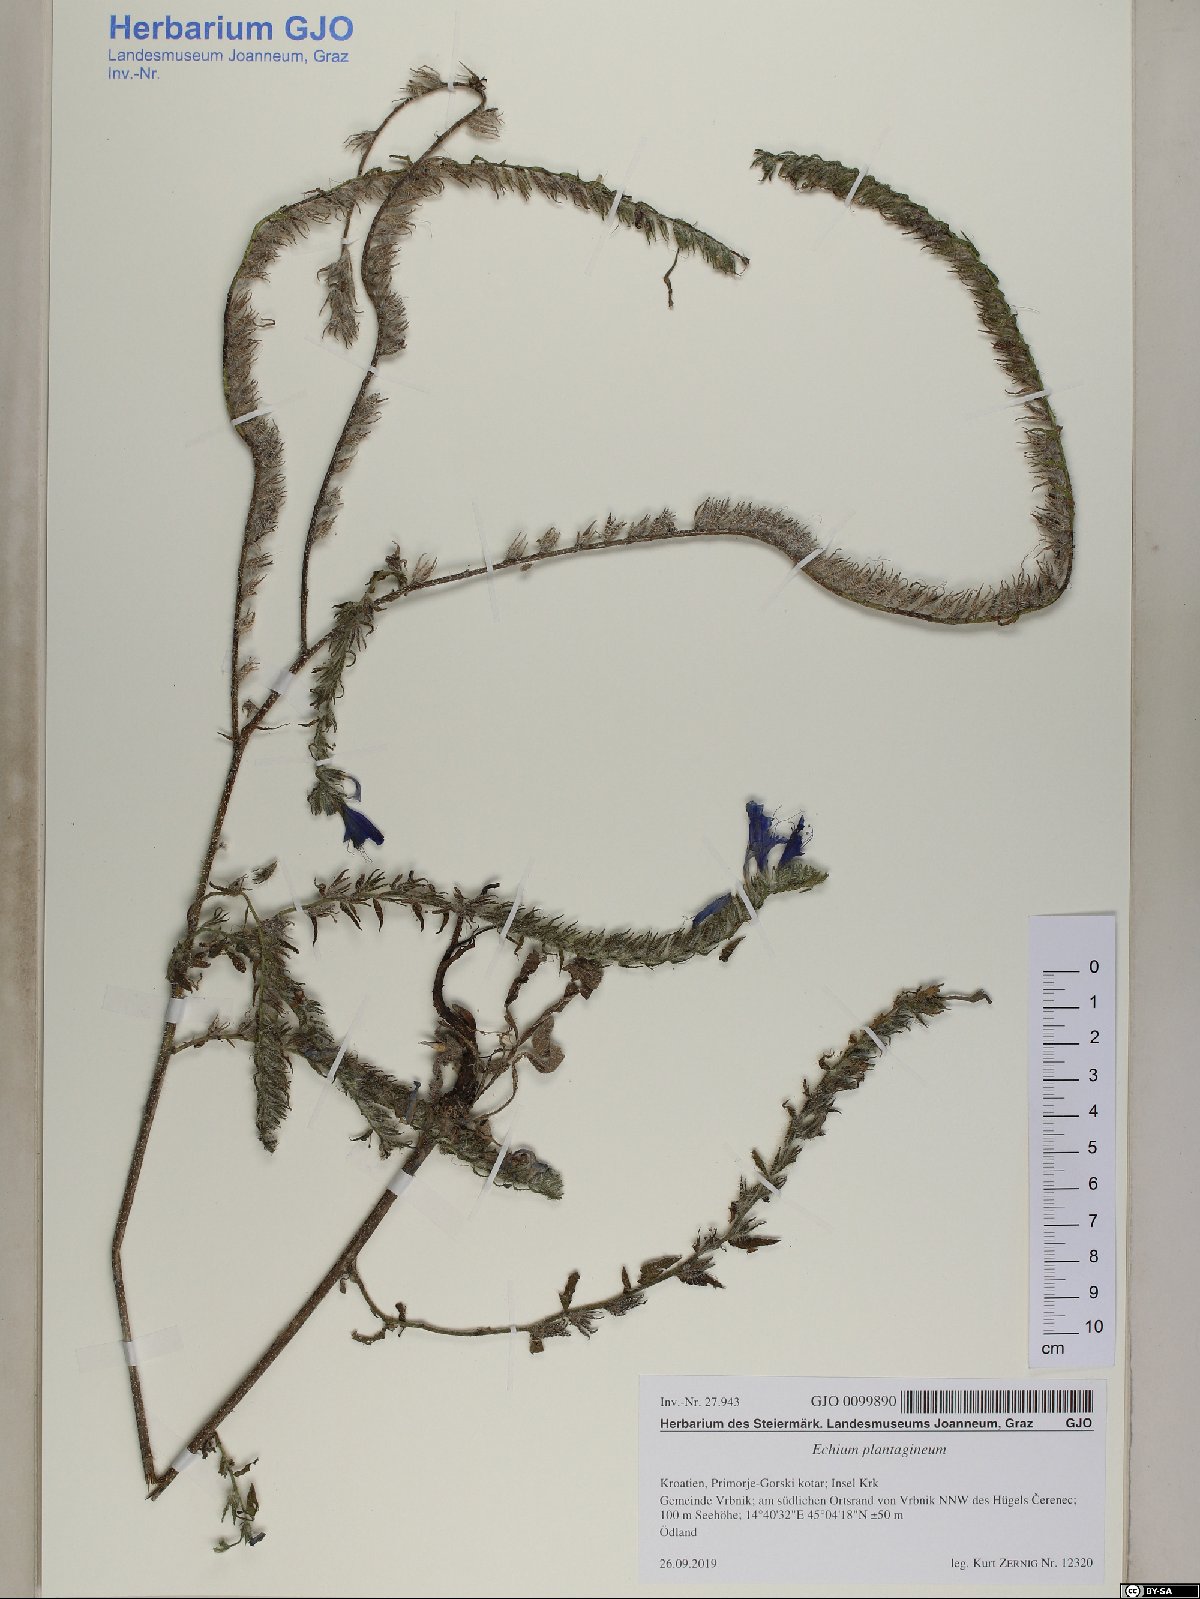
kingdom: Plantae
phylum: Tracheophyta
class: Magnoliopsida
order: Boraginales
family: Boraginaceae
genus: Echium
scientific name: Echium vulgare
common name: Common viper's bugloss
